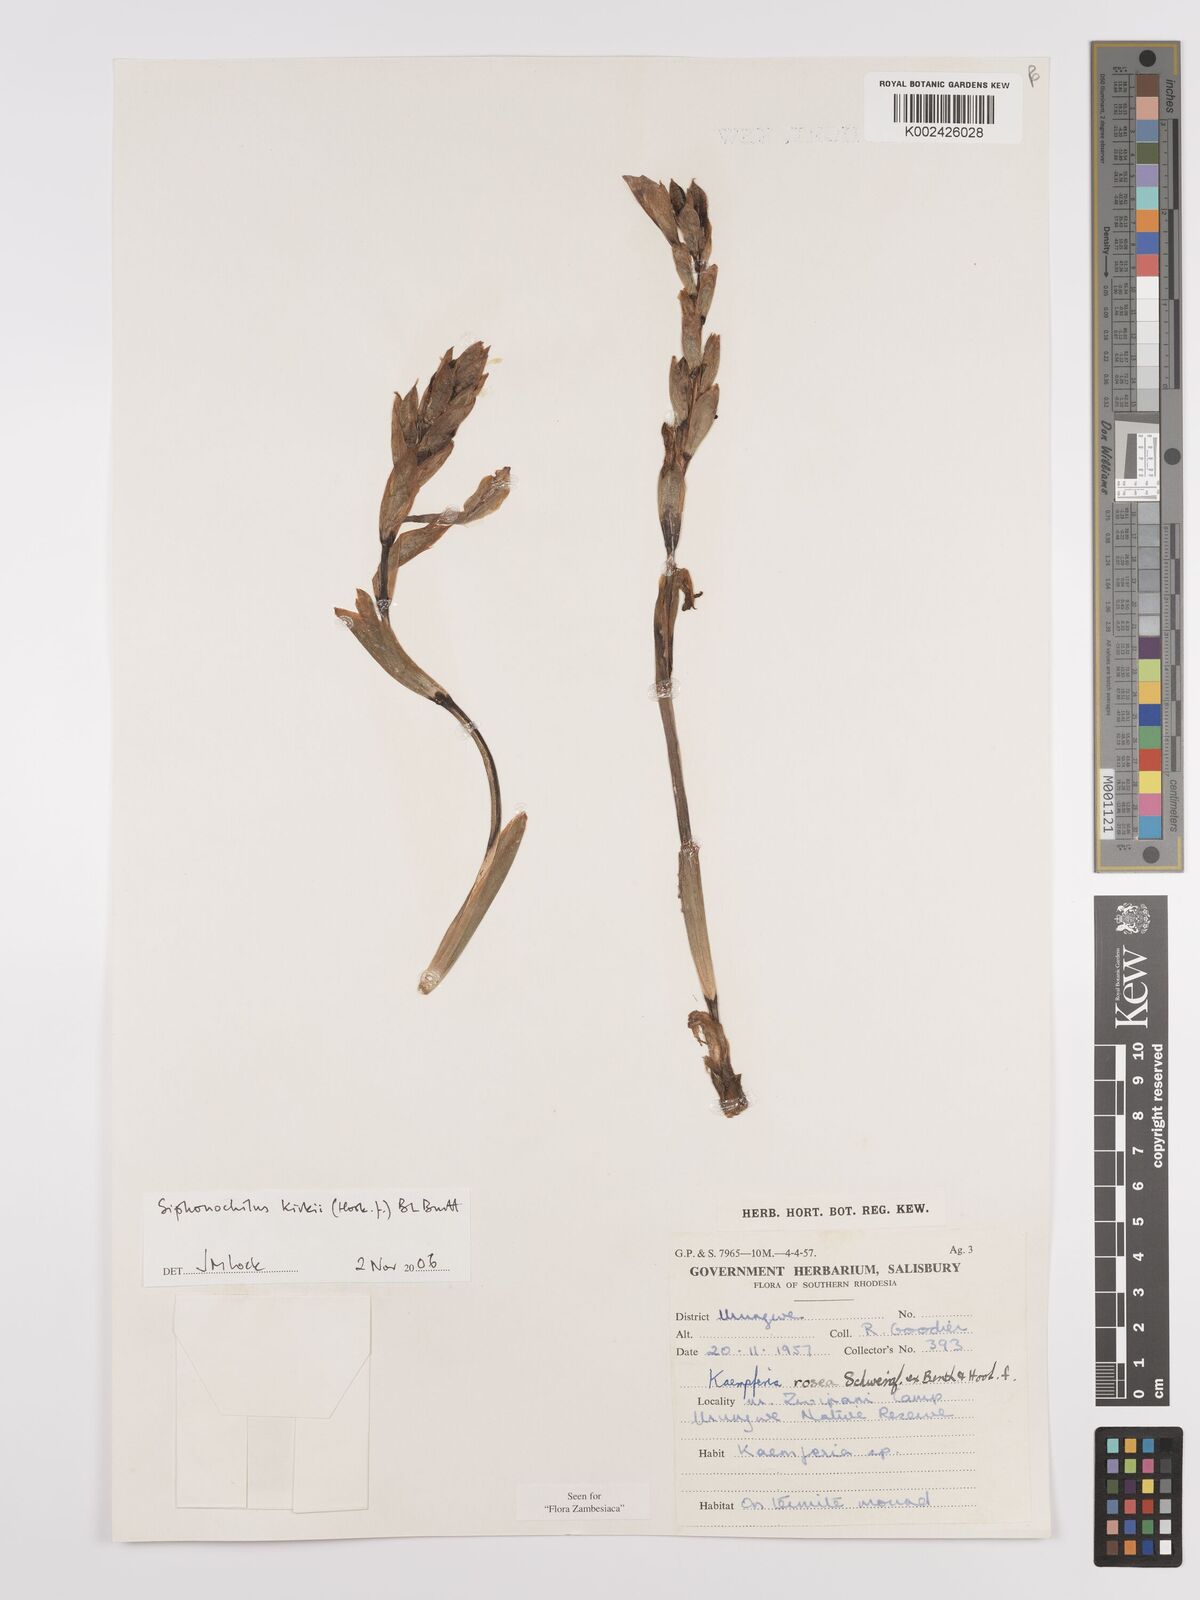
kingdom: Plantae
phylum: Tracheophyta
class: Liliopsida
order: Zingiberales
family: Zingiberaceae
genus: Siphonochilus
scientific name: Siphonochilus kirkii
